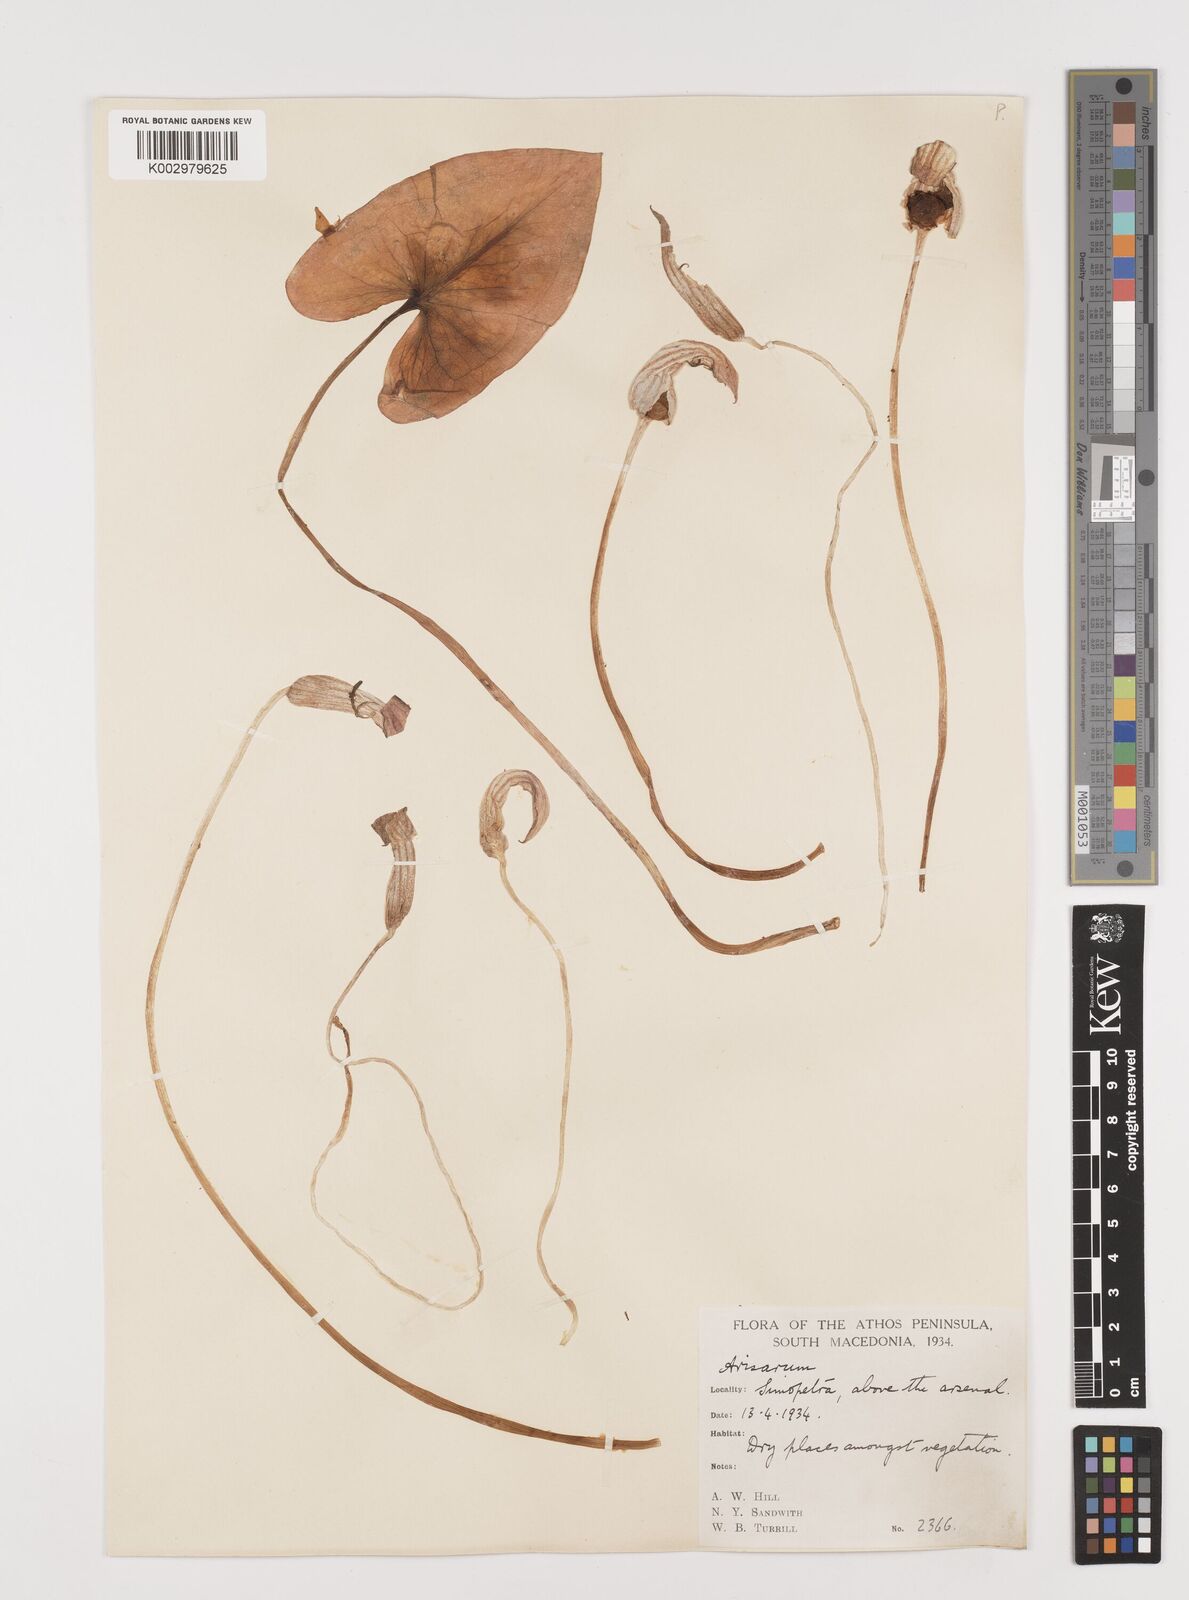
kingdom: Plantae
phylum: Tracheophyta
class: Liliopsida
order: Alismatales
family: Araceae
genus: Arisarum
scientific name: Arisarum vulgare
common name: Common arisarum
